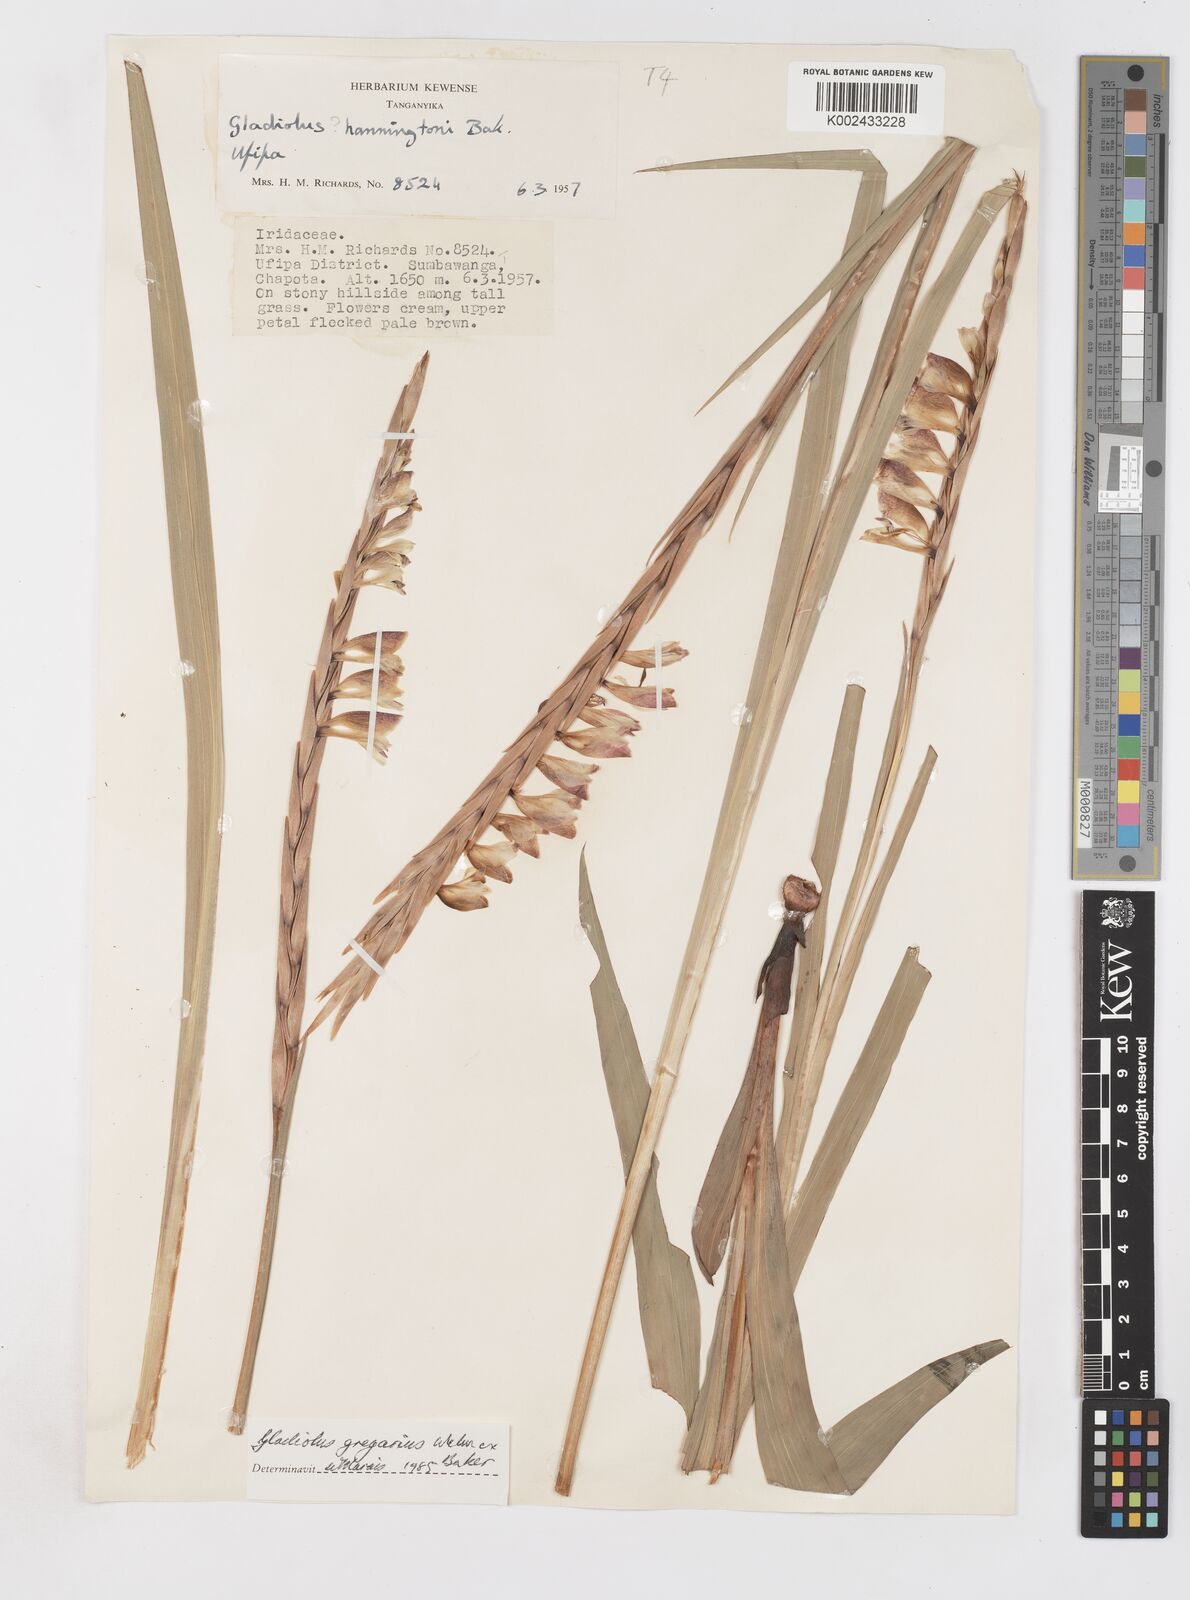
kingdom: Plantae
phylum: Tracheophyta
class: Liliopsida
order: Asparagales
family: Iridaceae
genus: Gladiolus
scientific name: Gladiolus gregarius
